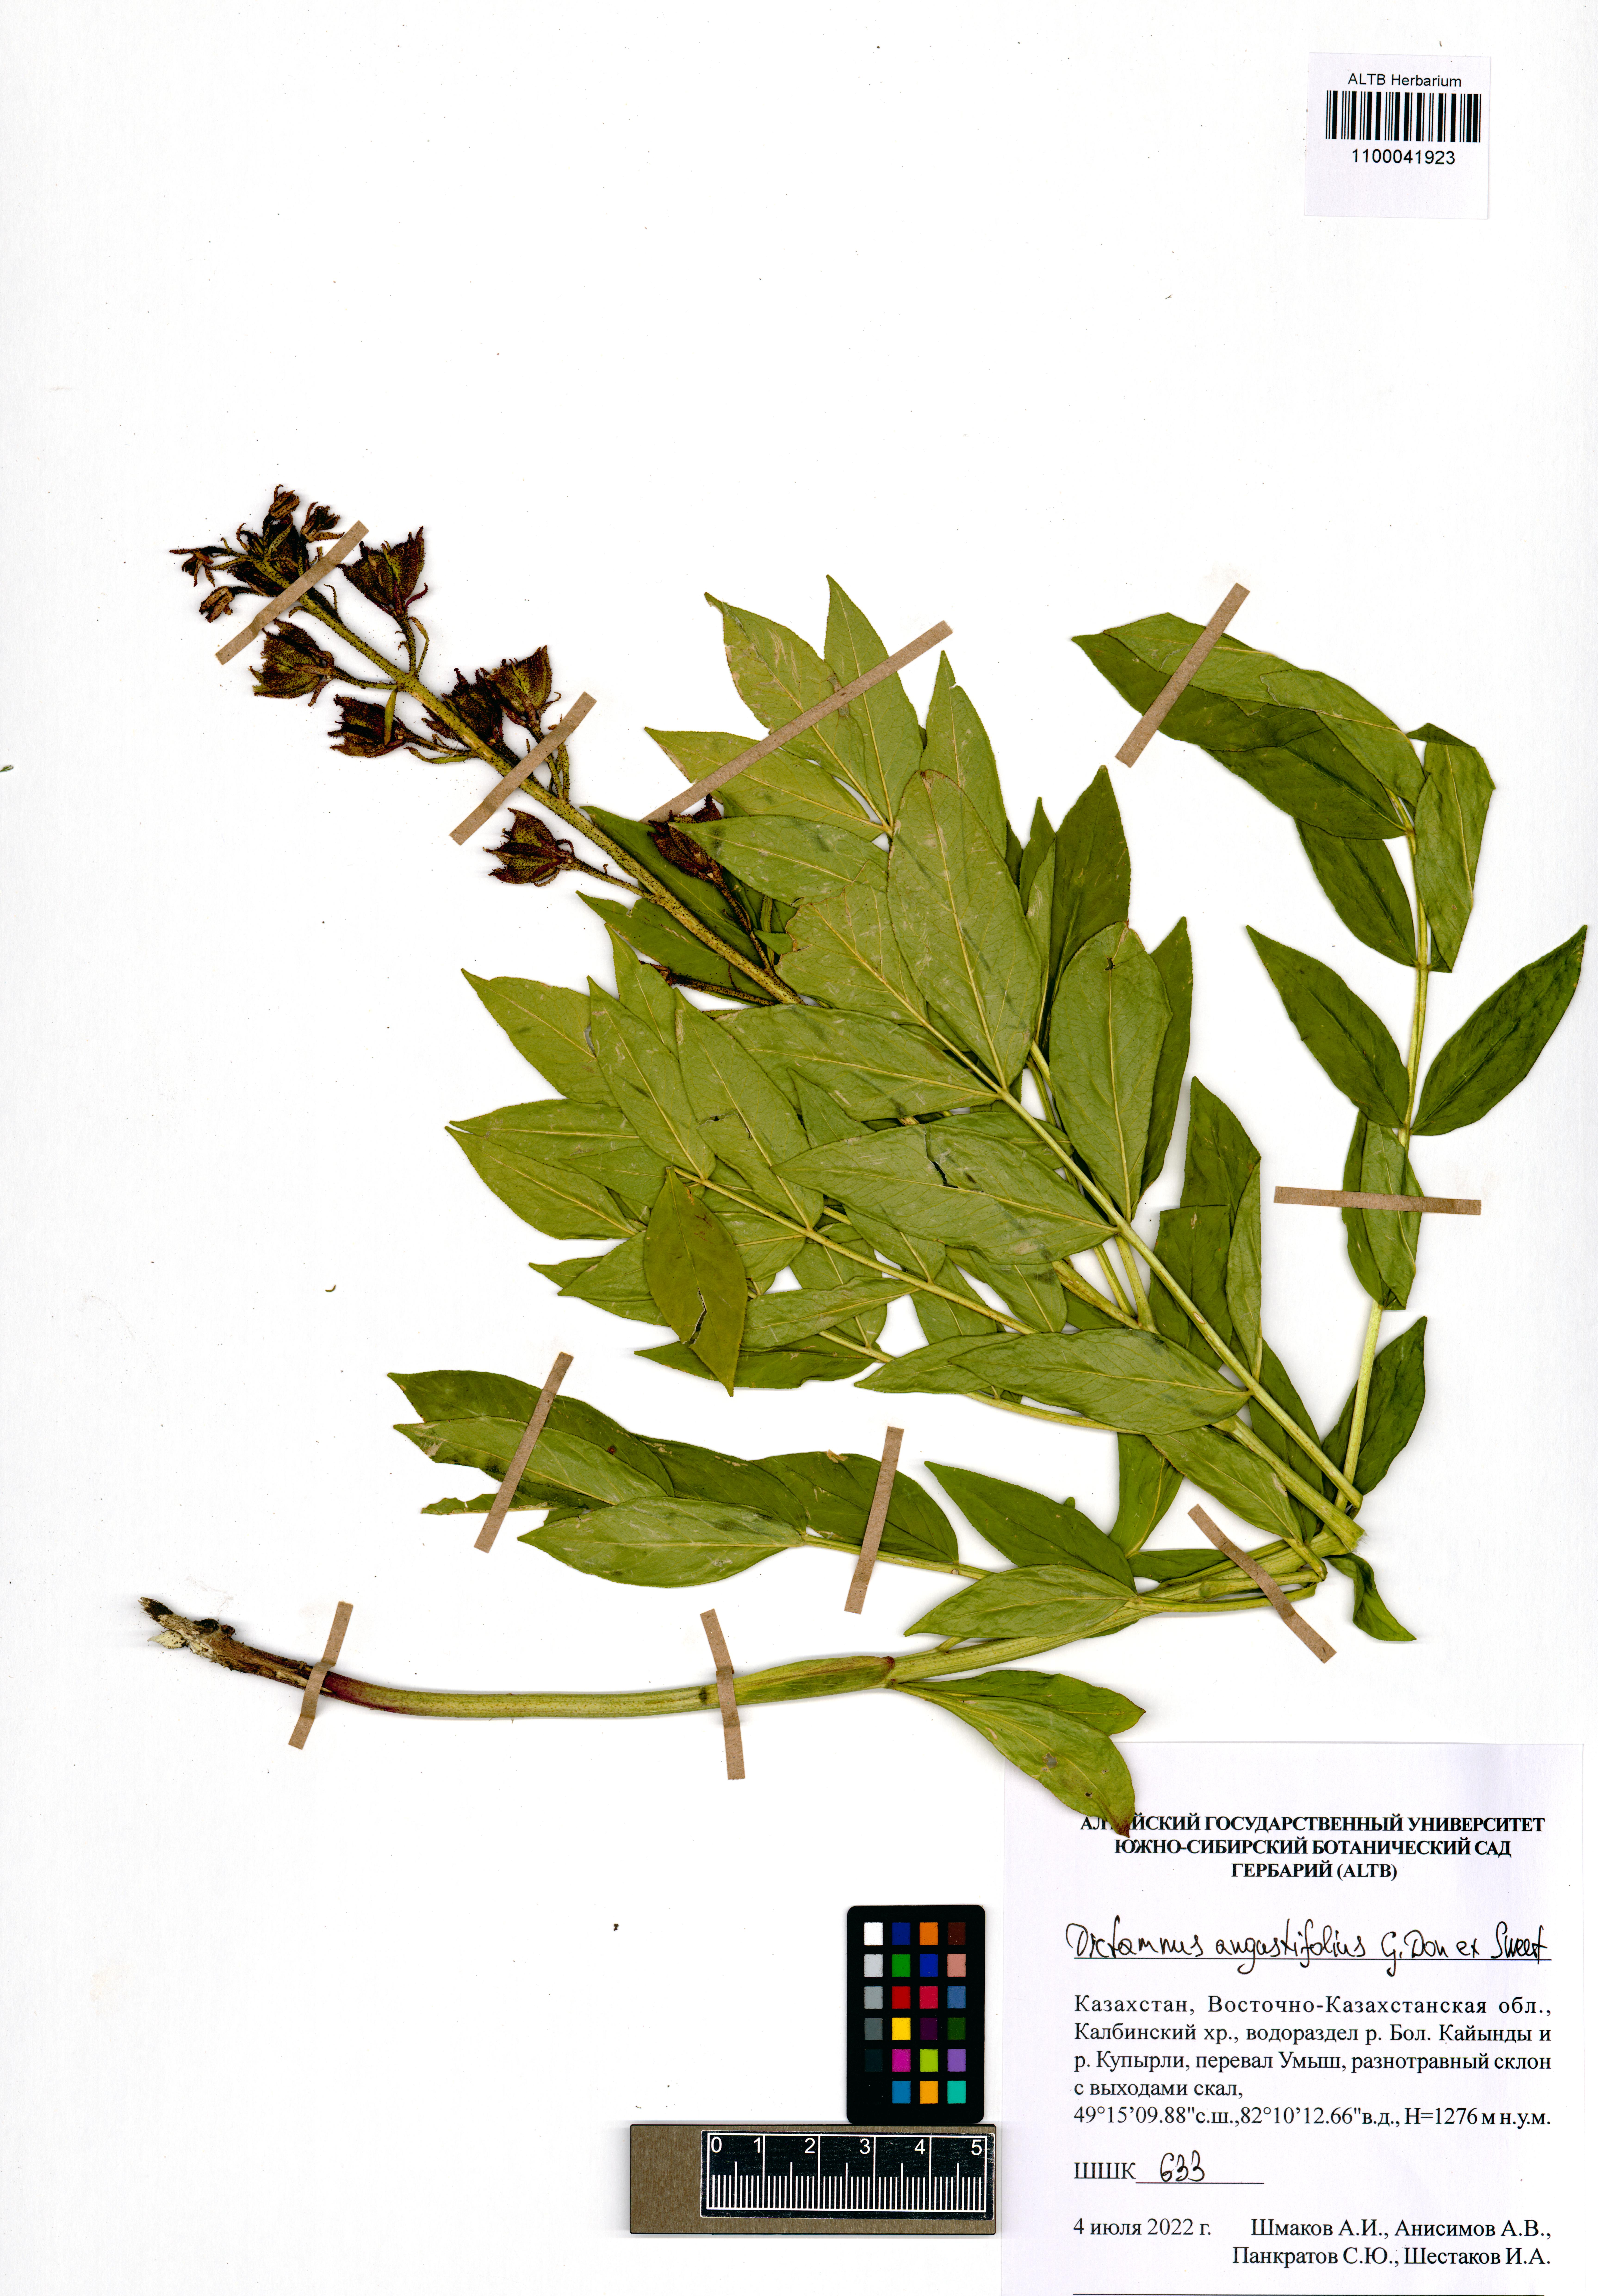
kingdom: Plantae
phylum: Tracheophyta
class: Magnoliopsida
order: Sapindales
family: Rutaceae
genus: Dictamnus
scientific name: Dictamnus albus
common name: Gasplant
